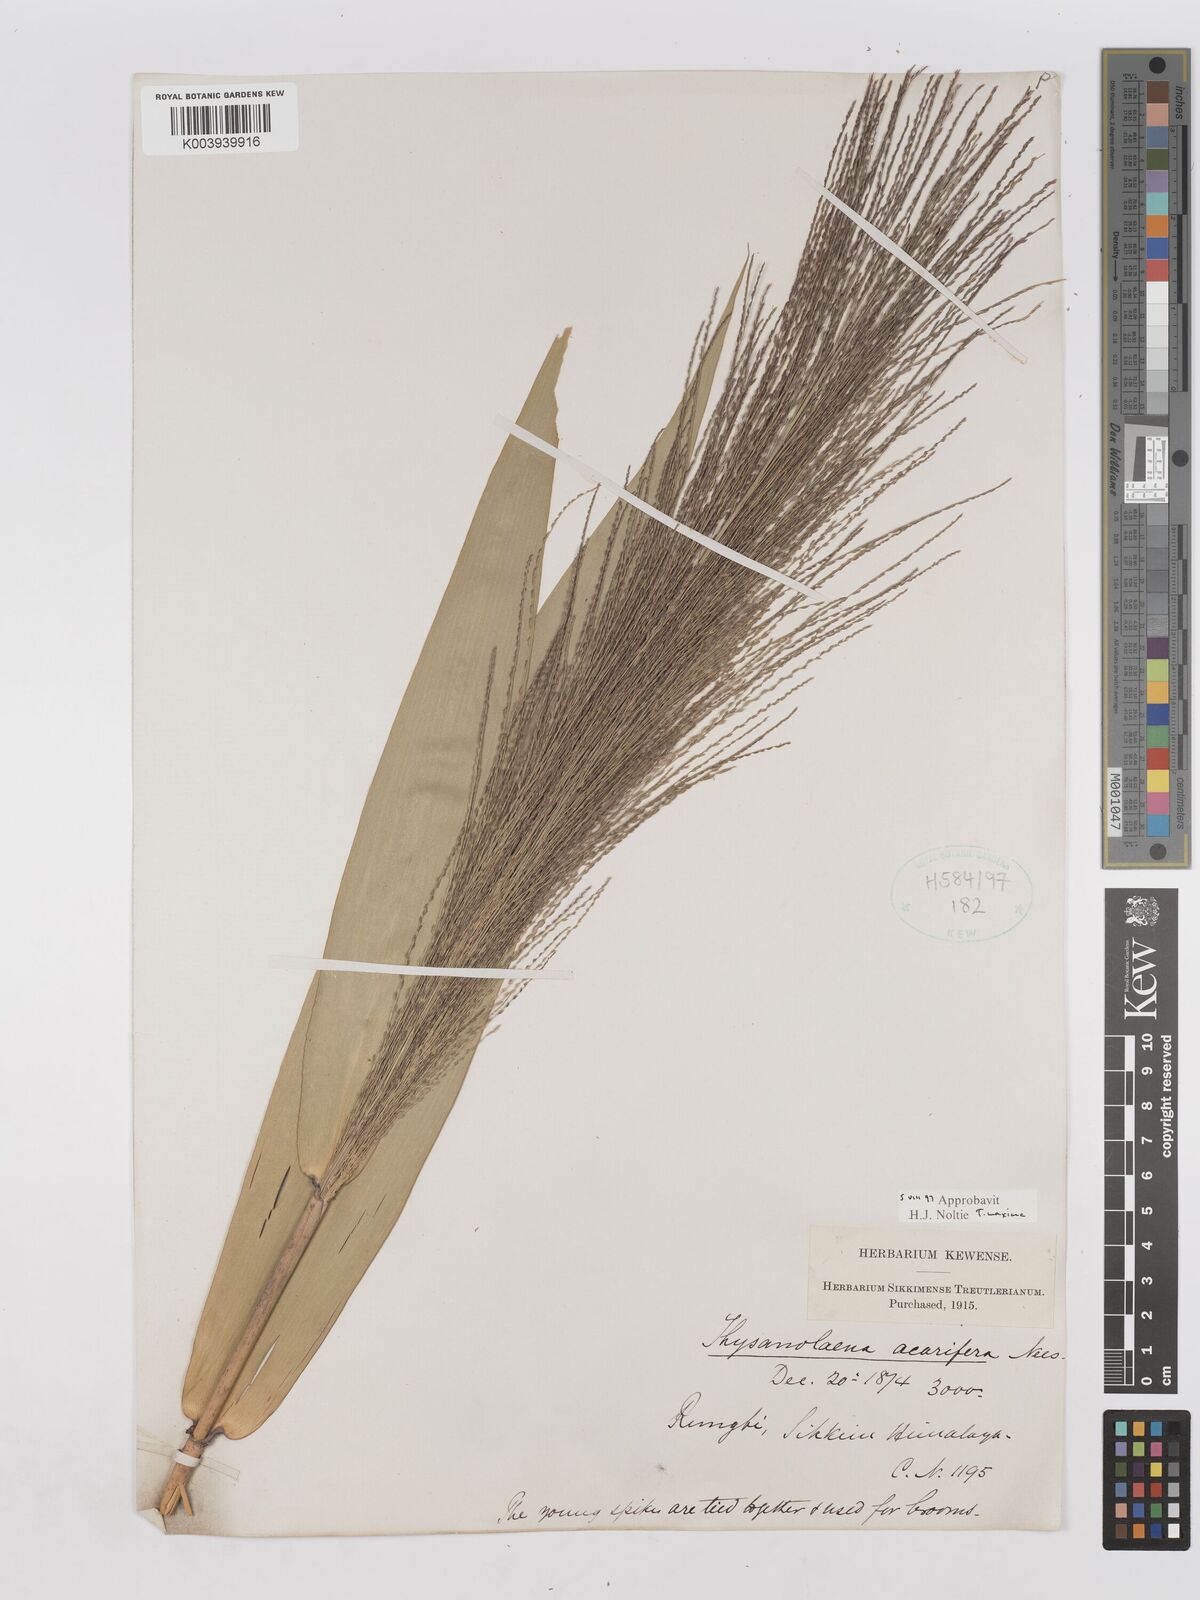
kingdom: Plantae
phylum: Tracheophyta
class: Liliopsida
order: Poales
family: Poaceae
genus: Thysanolaena
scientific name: Thysanolaena latifolia
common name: Tiger grass
